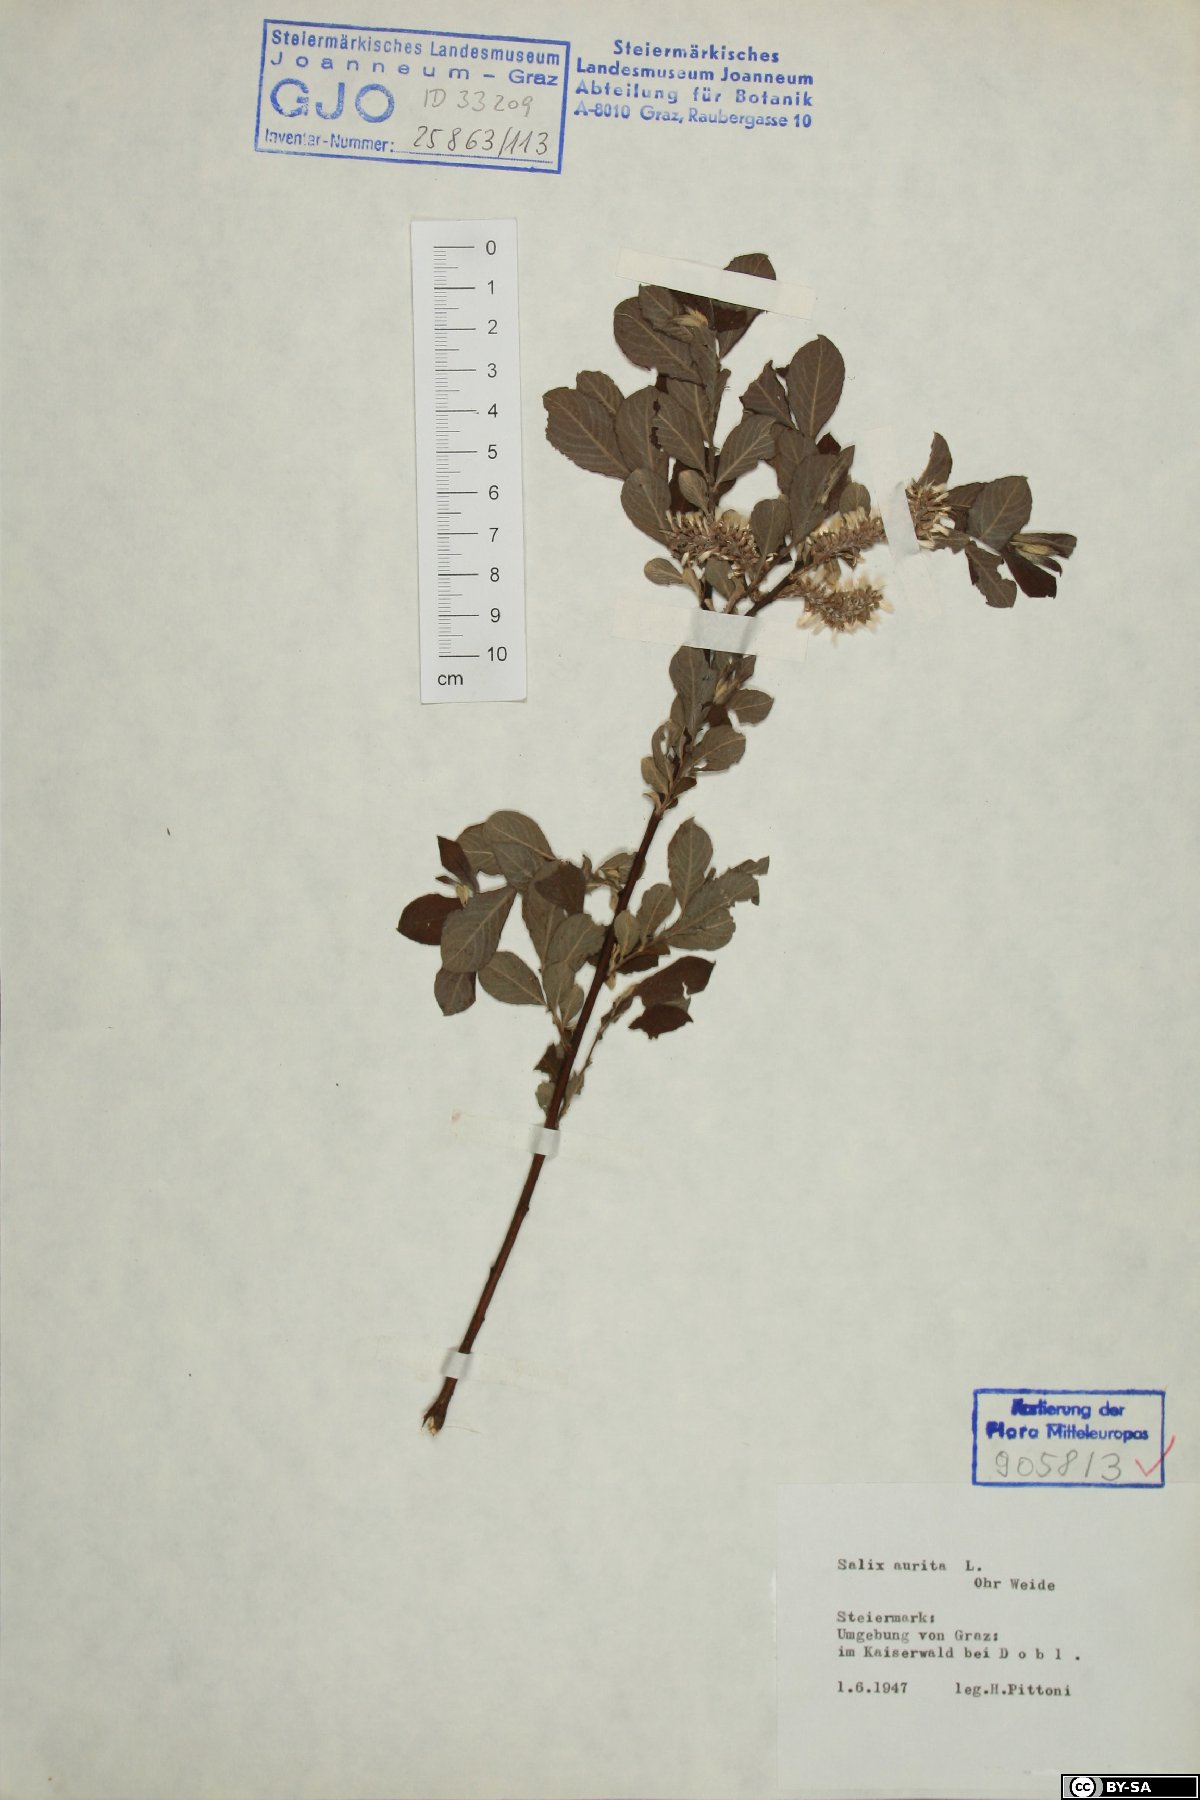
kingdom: Plantae
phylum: Tracheophyta
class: Magnoliopsida
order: Malpighiales
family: Salicaceae
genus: Salix
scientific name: Salix aurita
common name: Eared willow
